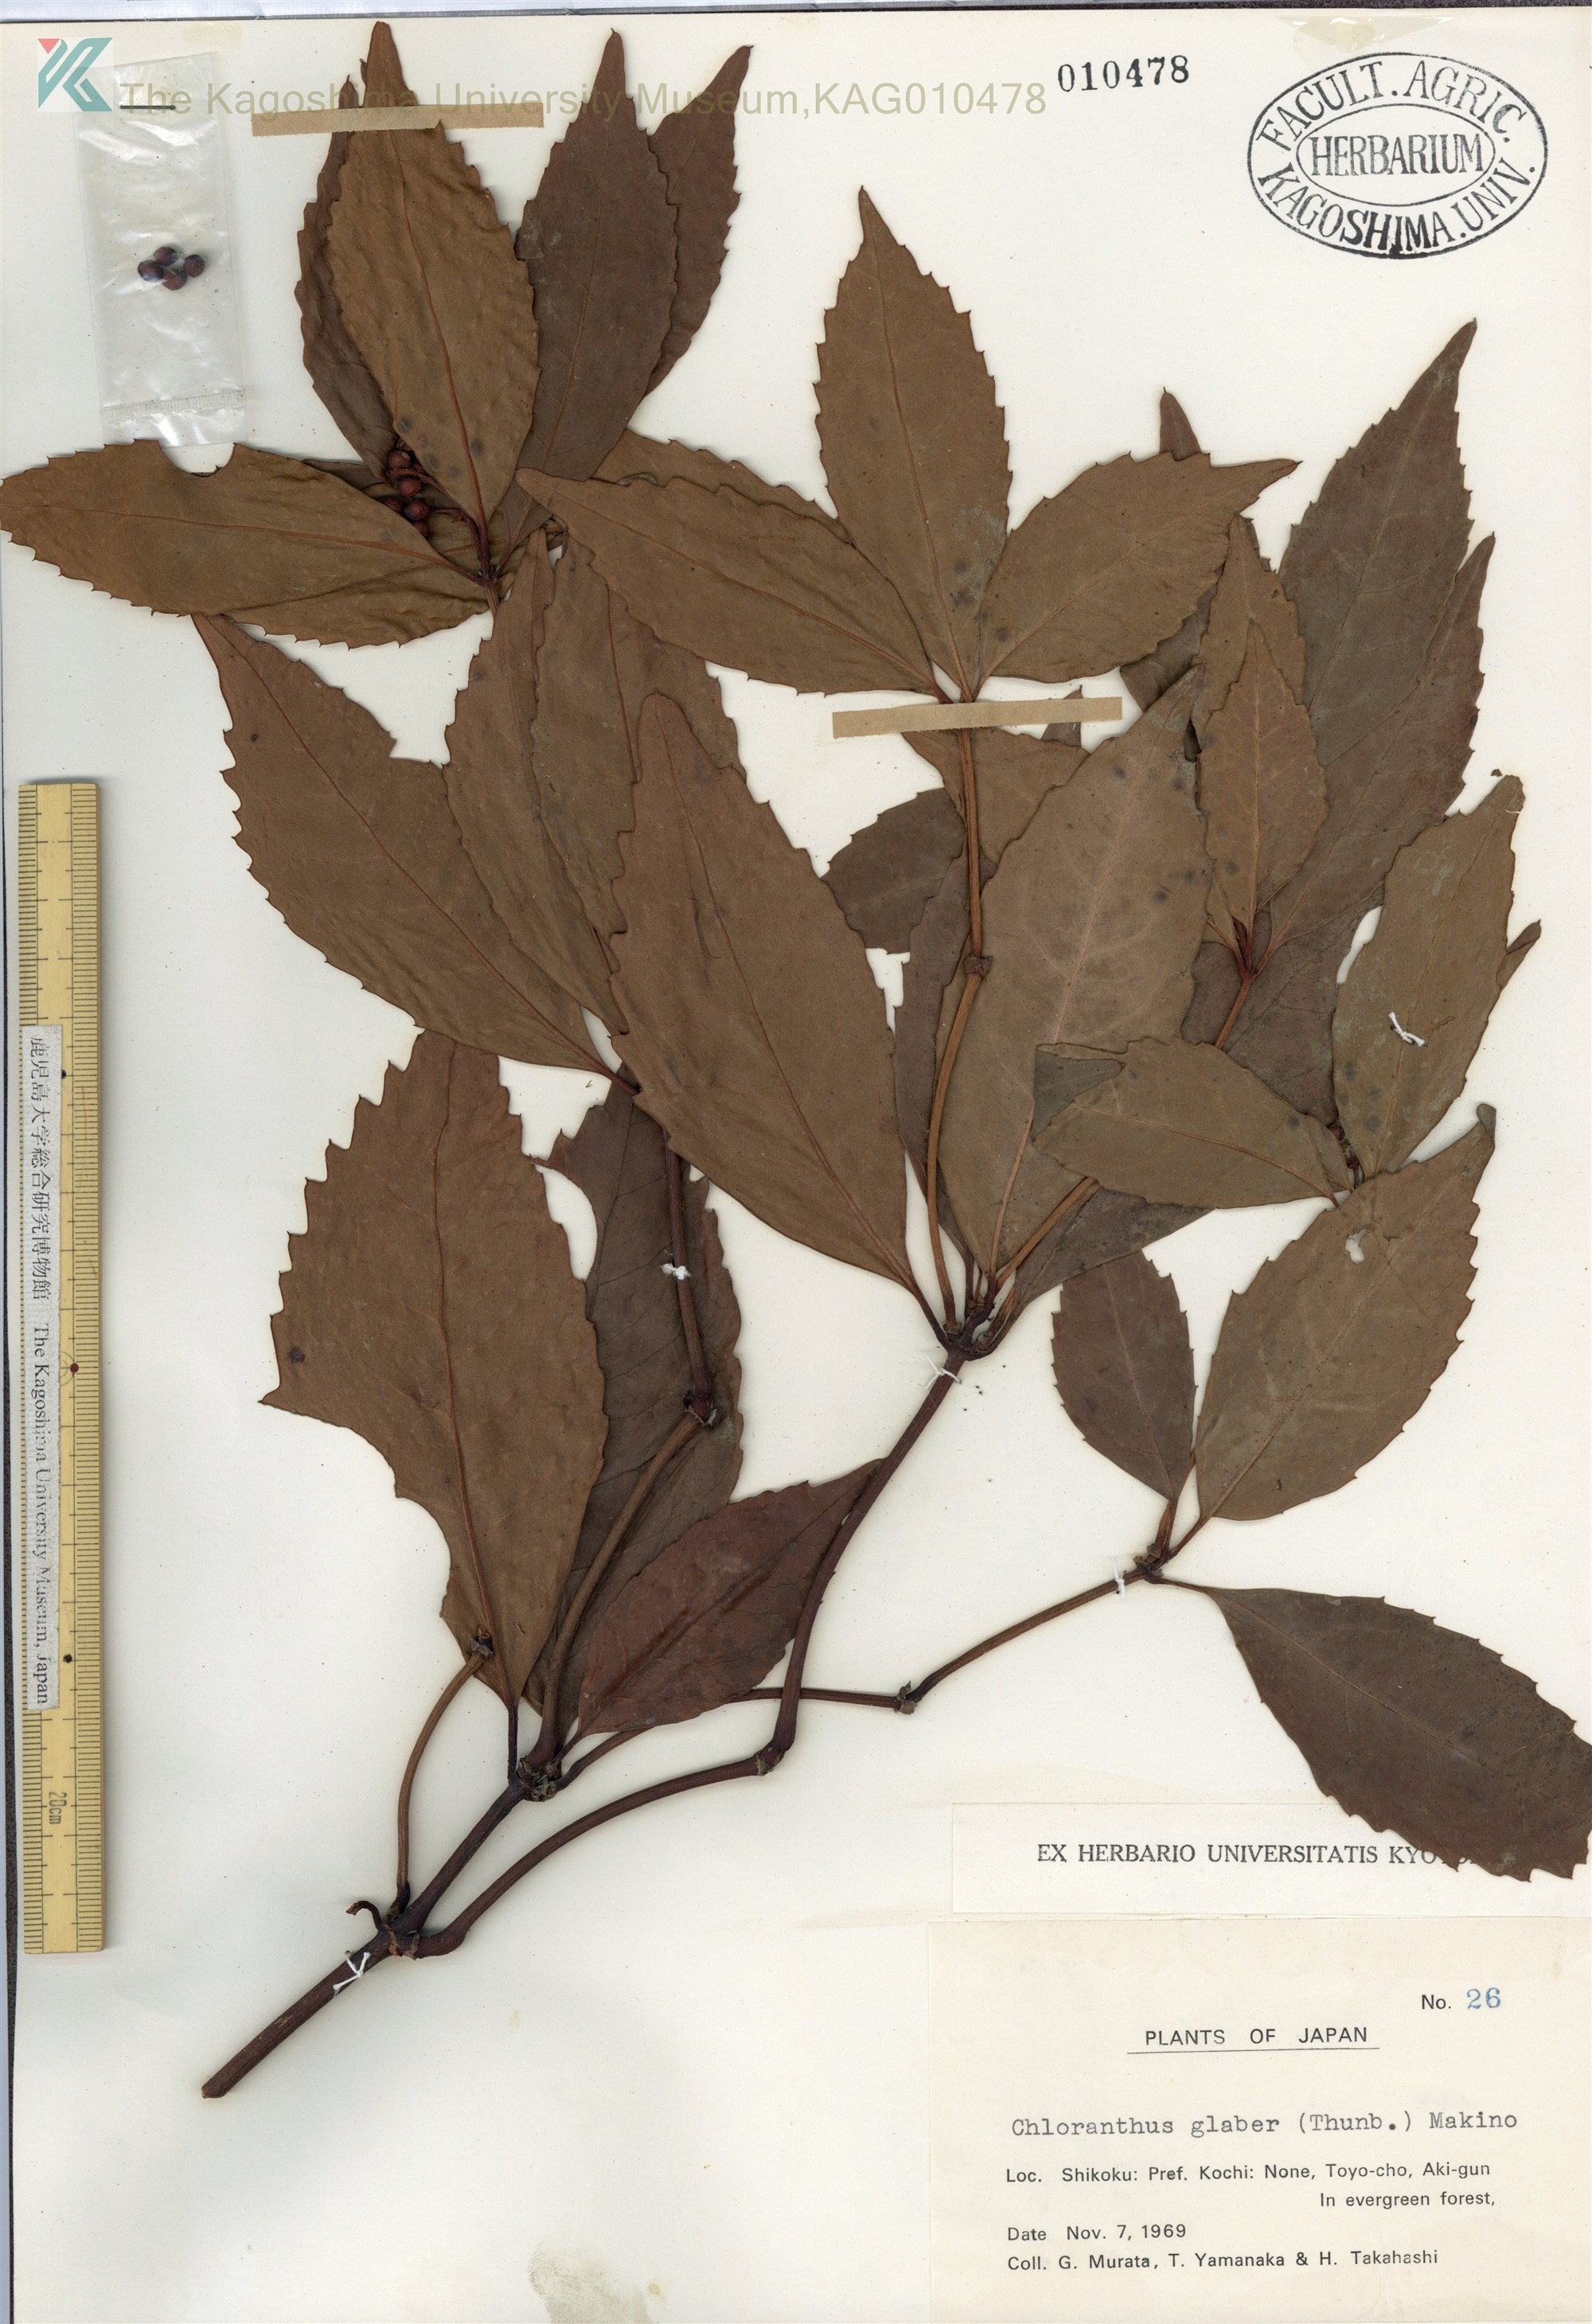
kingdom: Plantae
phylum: Tracheophyta
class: Magnoliopsida
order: Chloranthales
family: Chloranthaceae
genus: Sarcandra
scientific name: Sarcandra glabra
